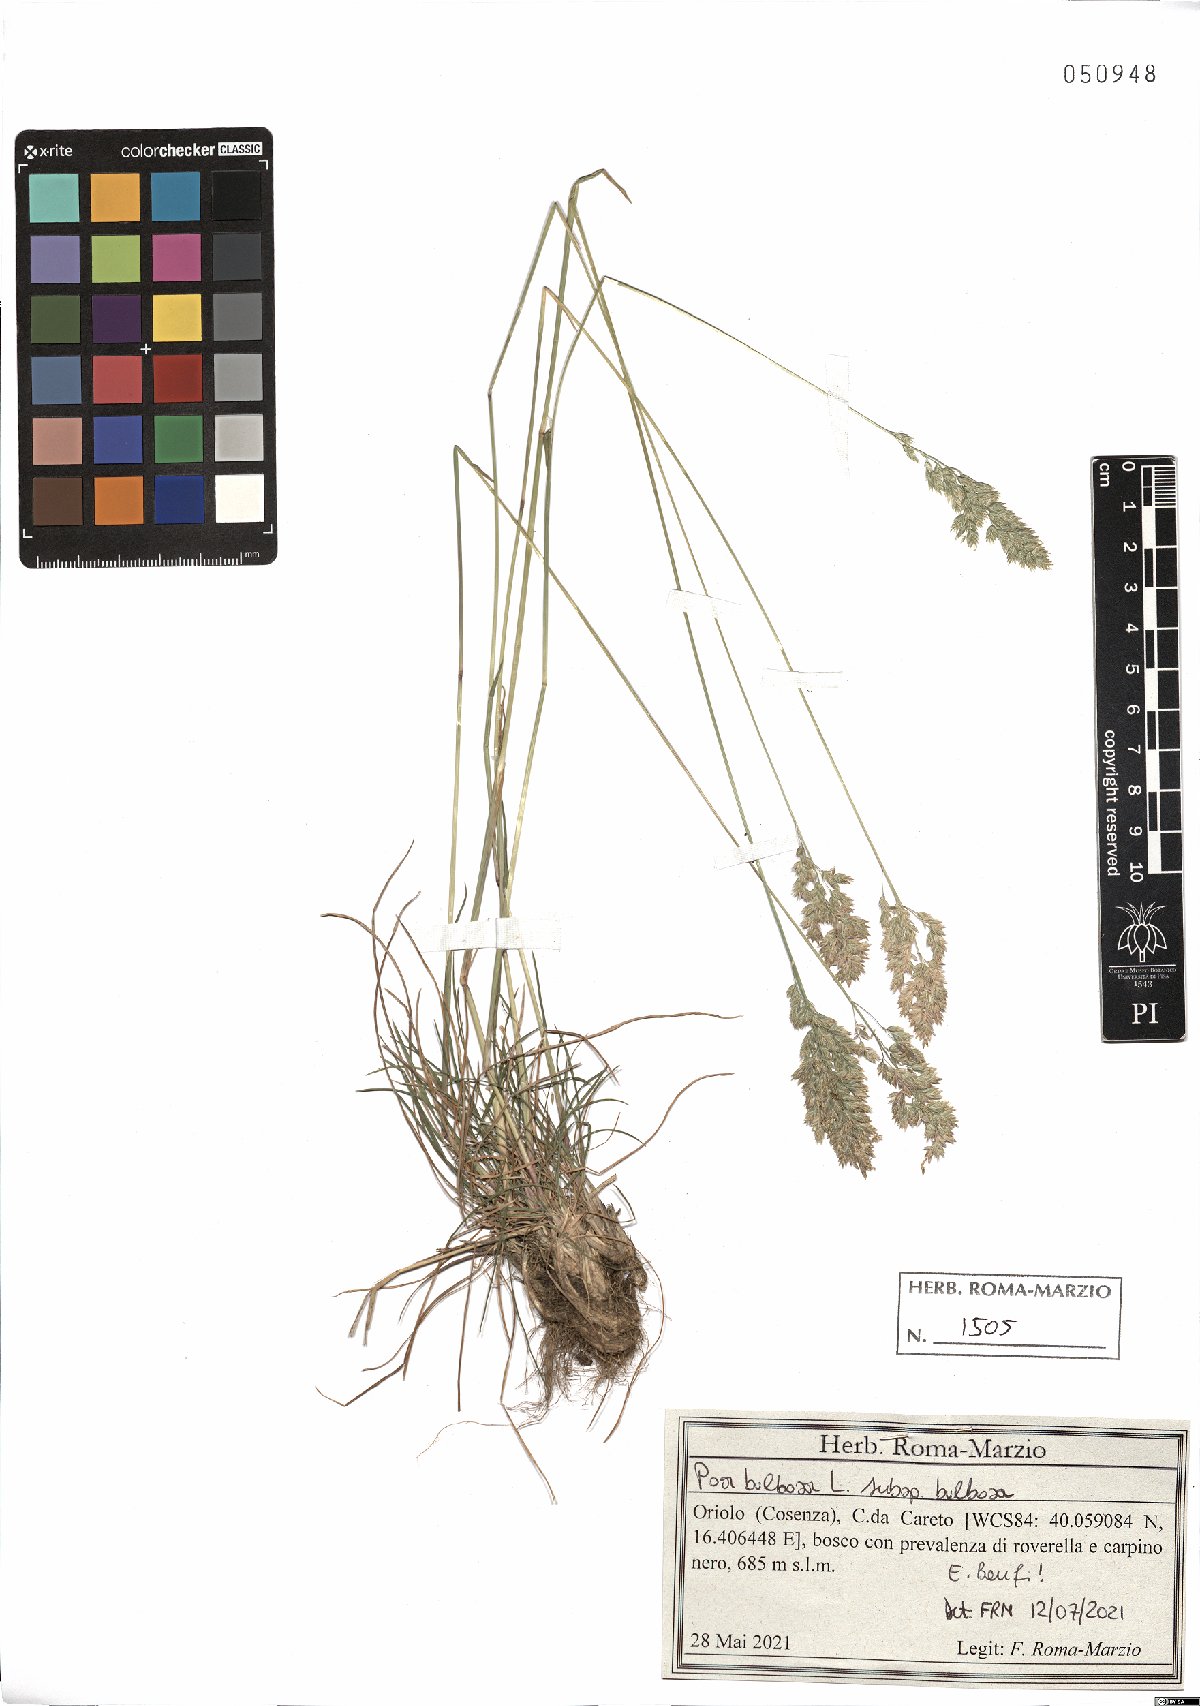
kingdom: Plantae
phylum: Tracheophyta
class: Liliopsida
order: Poales
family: Poaceae
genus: Poa
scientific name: Poa bulbosa
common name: Bulbous bluegrass
